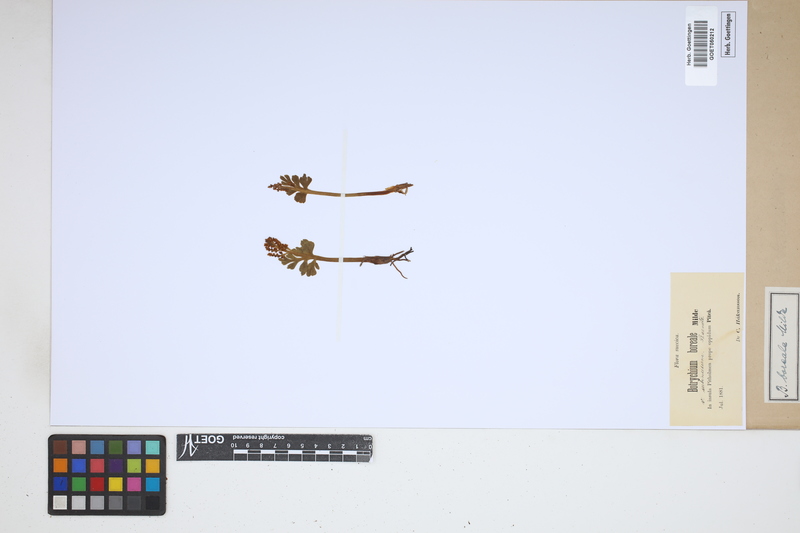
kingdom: Plantae
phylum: Tracheophyta
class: Polypodiopsida
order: Ophioglossales
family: Ophioglossaceae
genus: Botrychium
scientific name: Botrychium boreale
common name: Boreal moonwort
